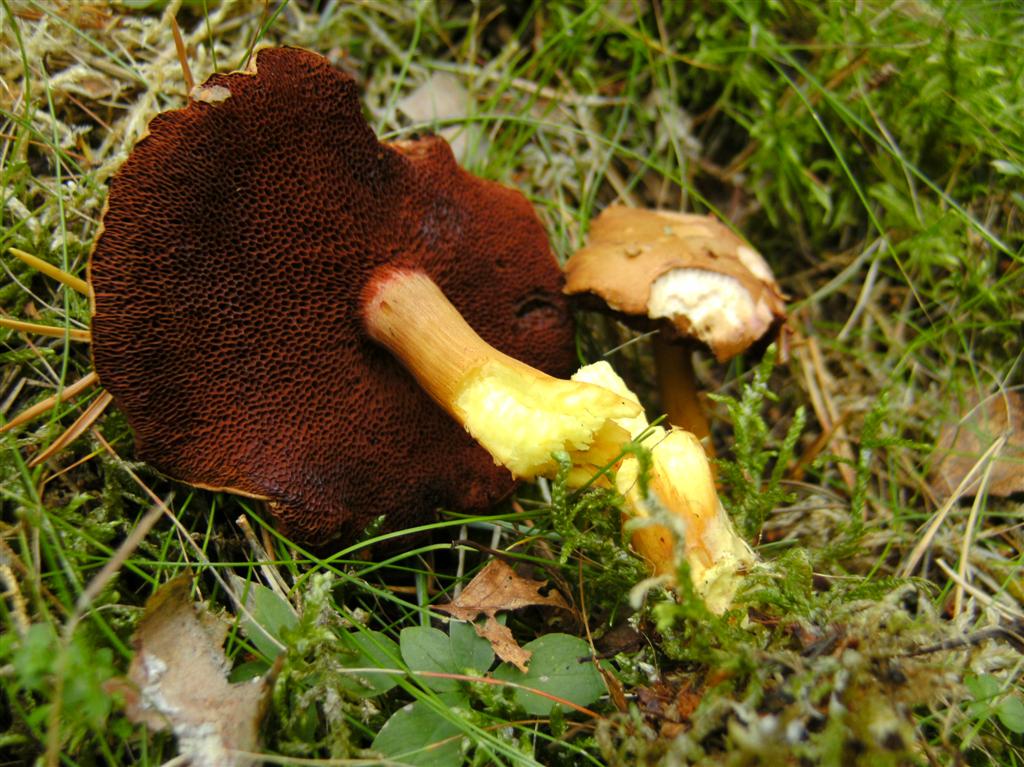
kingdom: Fungi
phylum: Basidiomycota
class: Agaricomycetes
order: Boletales
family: Boletaceae
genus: Chalciporus
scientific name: Chalciporus piperatus
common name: peberrørhat
